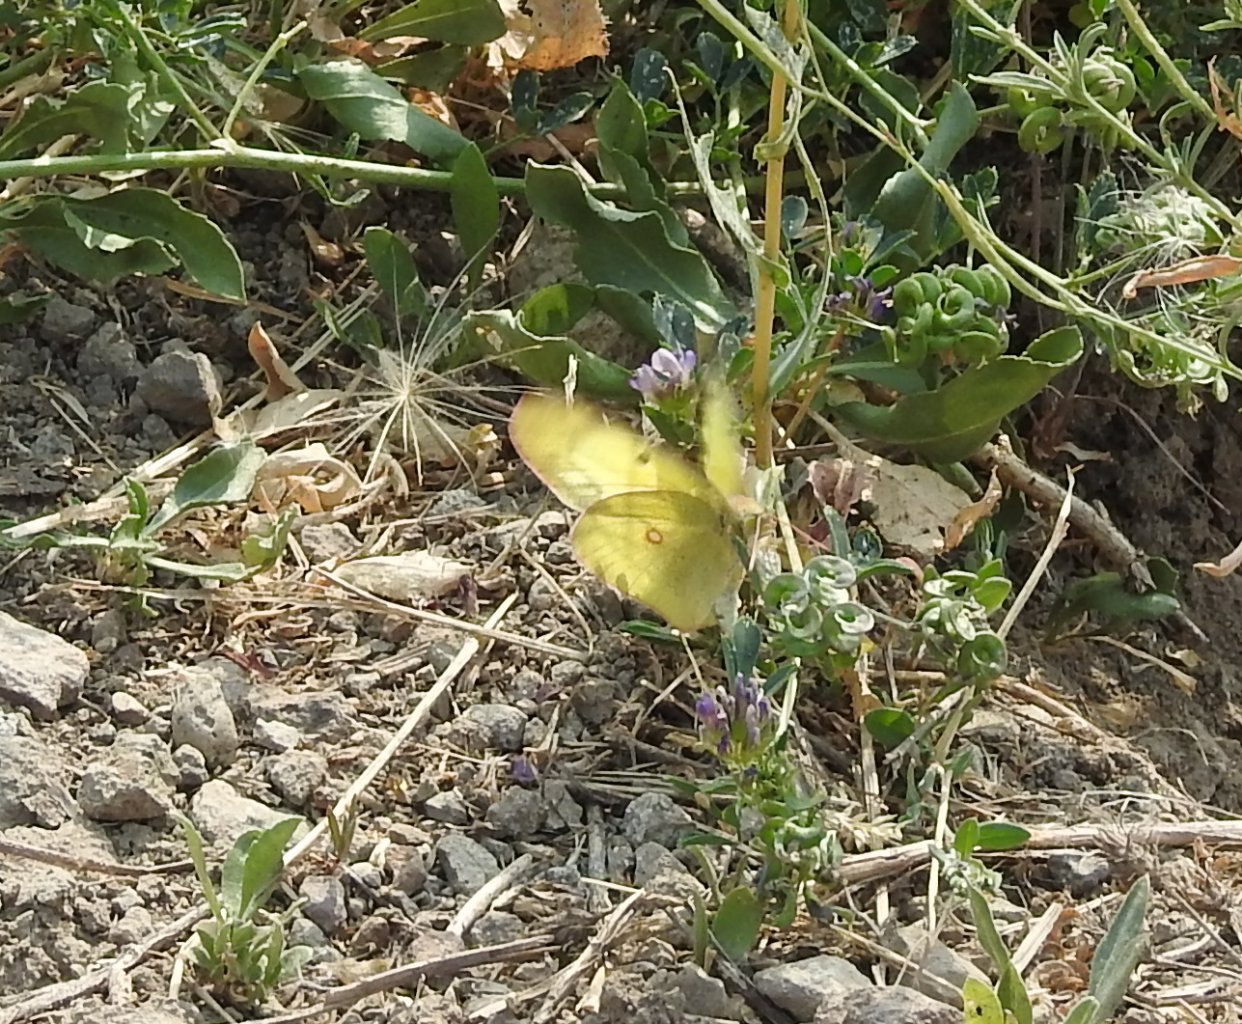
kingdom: Animalia
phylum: Arthropoda
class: Insecta
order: Lepidoptera
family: Pieridae
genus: Colias
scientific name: Colias philodice
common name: Clouded Sulphur
